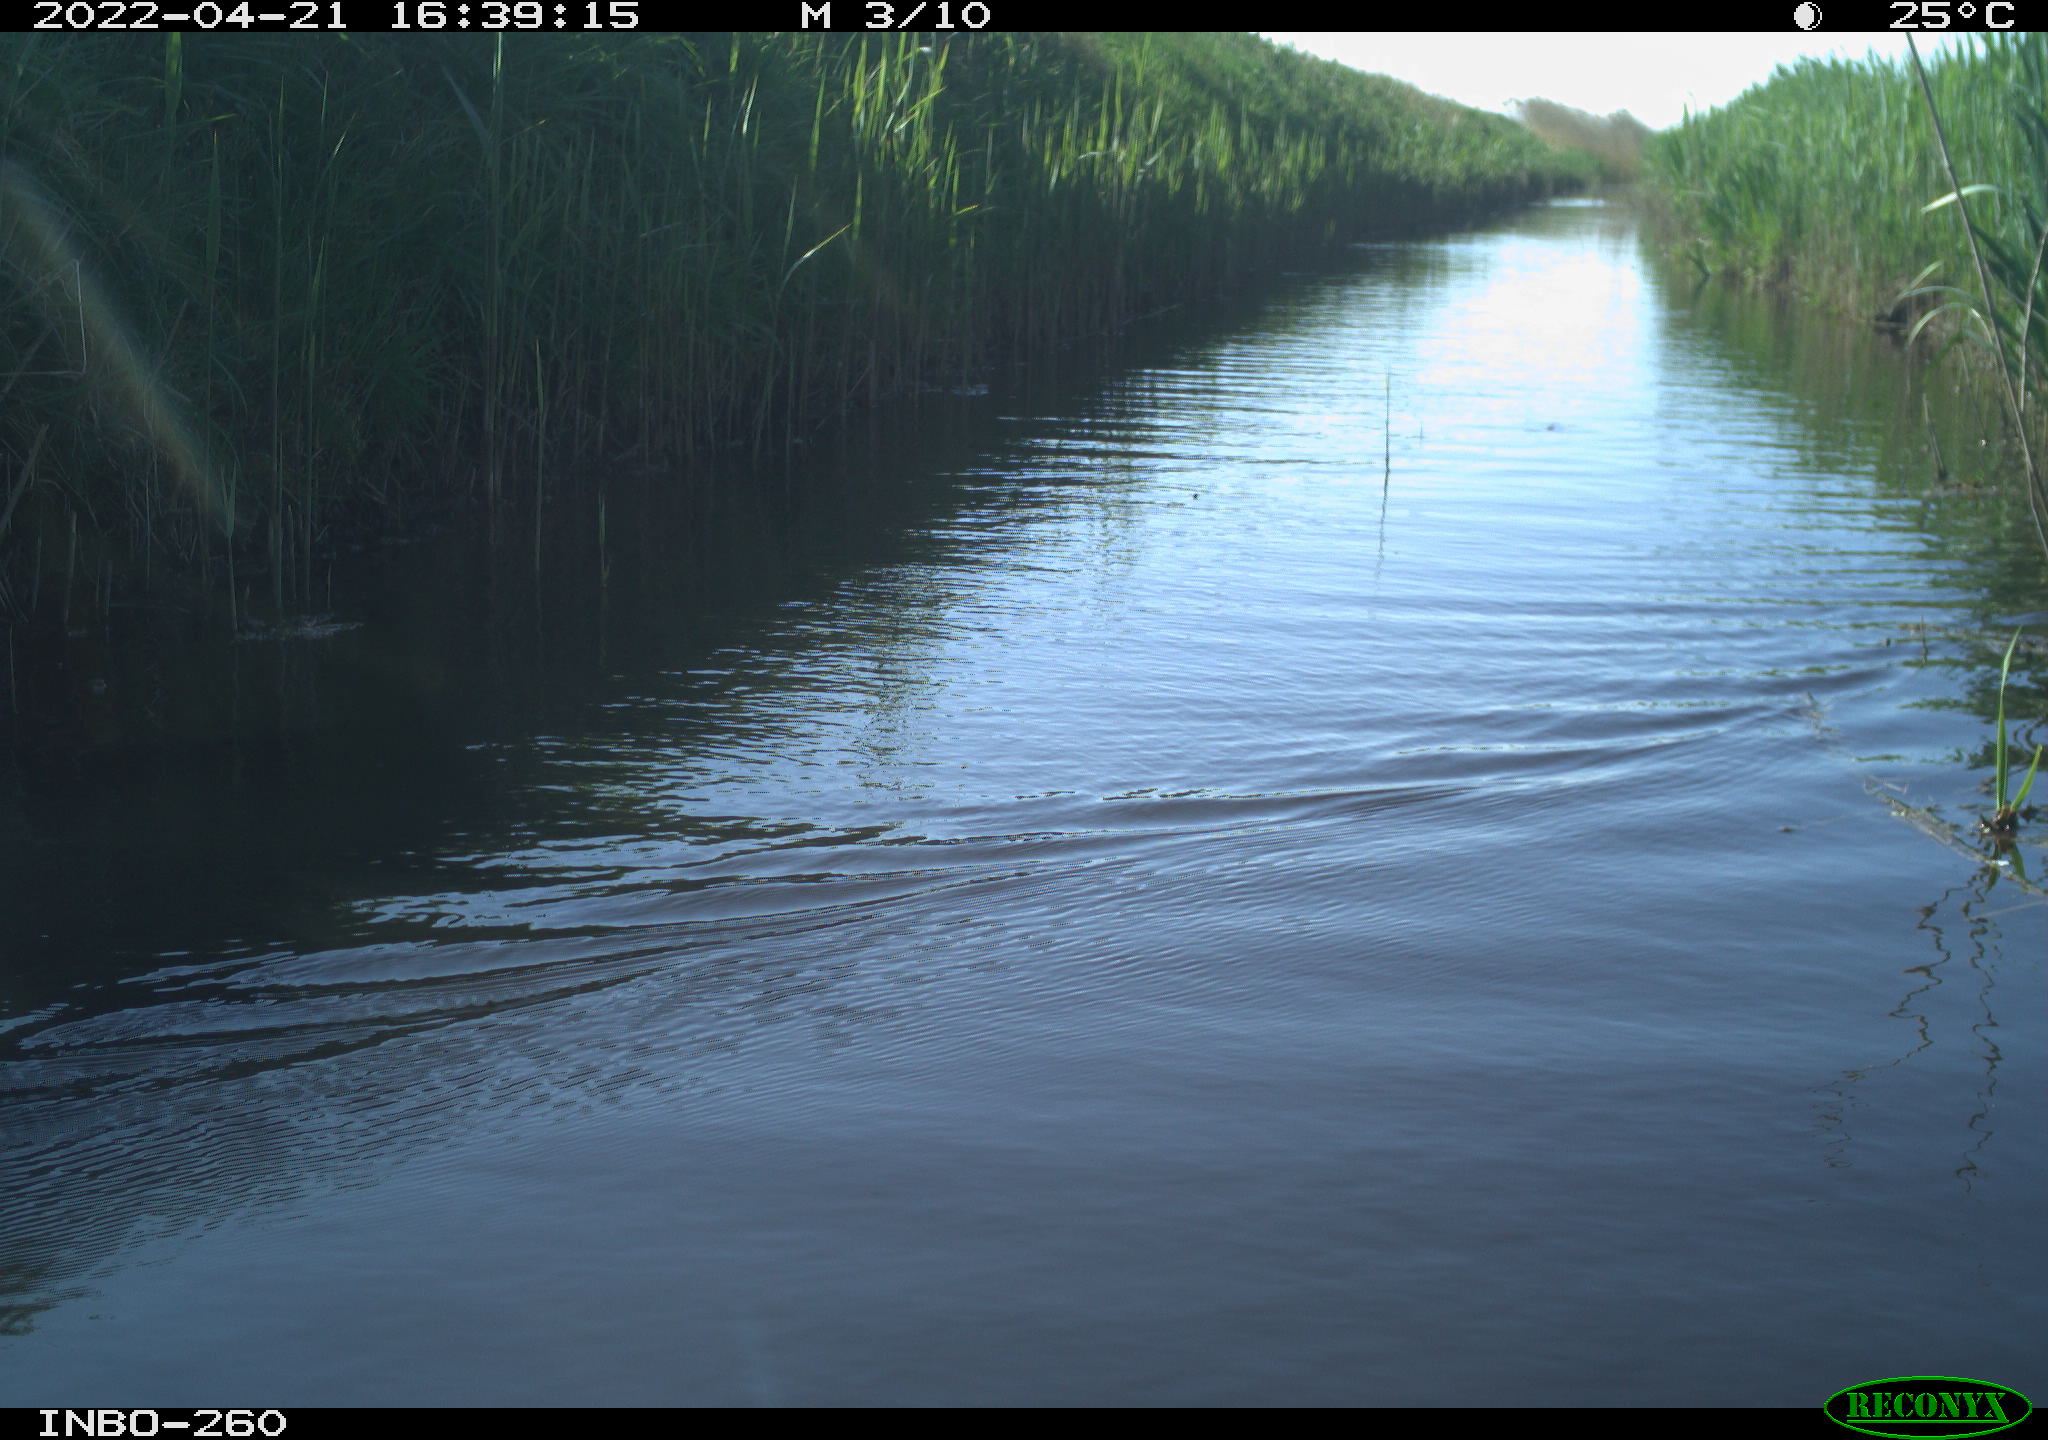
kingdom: Animalia
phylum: Chordata
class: Aves
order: Gruiformes
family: Rallidae
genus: Fulica
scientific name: Fulica atra
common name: Eurasian coot
